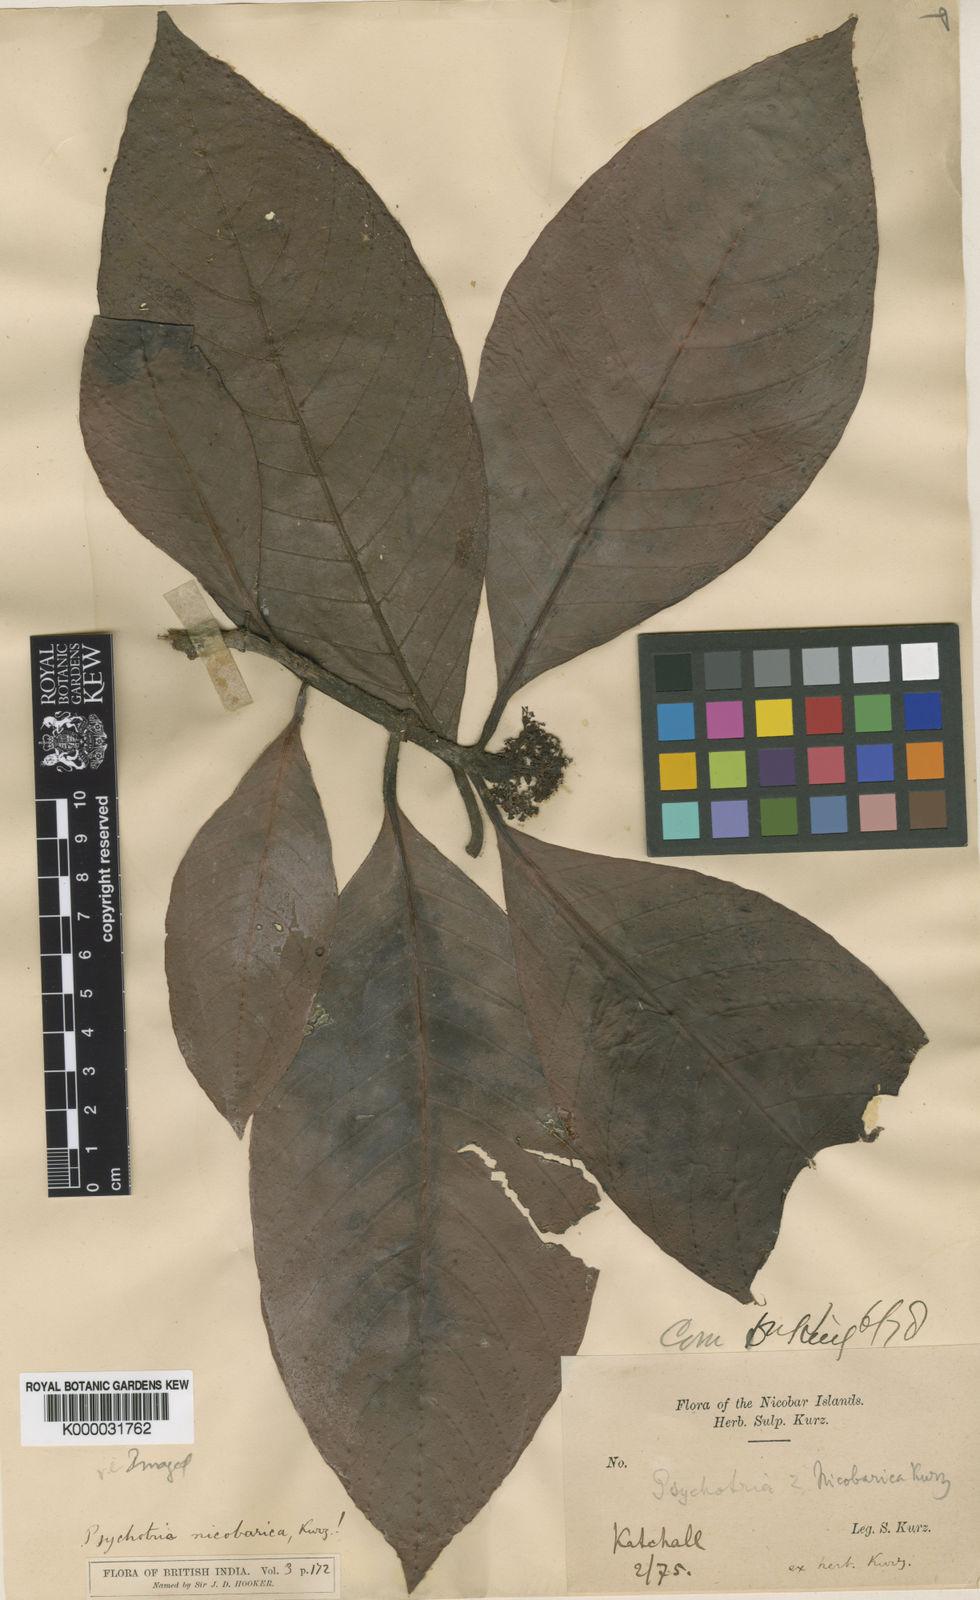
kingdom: Plantae
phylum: Tracheophyta
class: Magnoliopsida
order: Gentianales
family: Rubiaceae
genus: Psychotria
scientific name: Psychotria nicobarica
